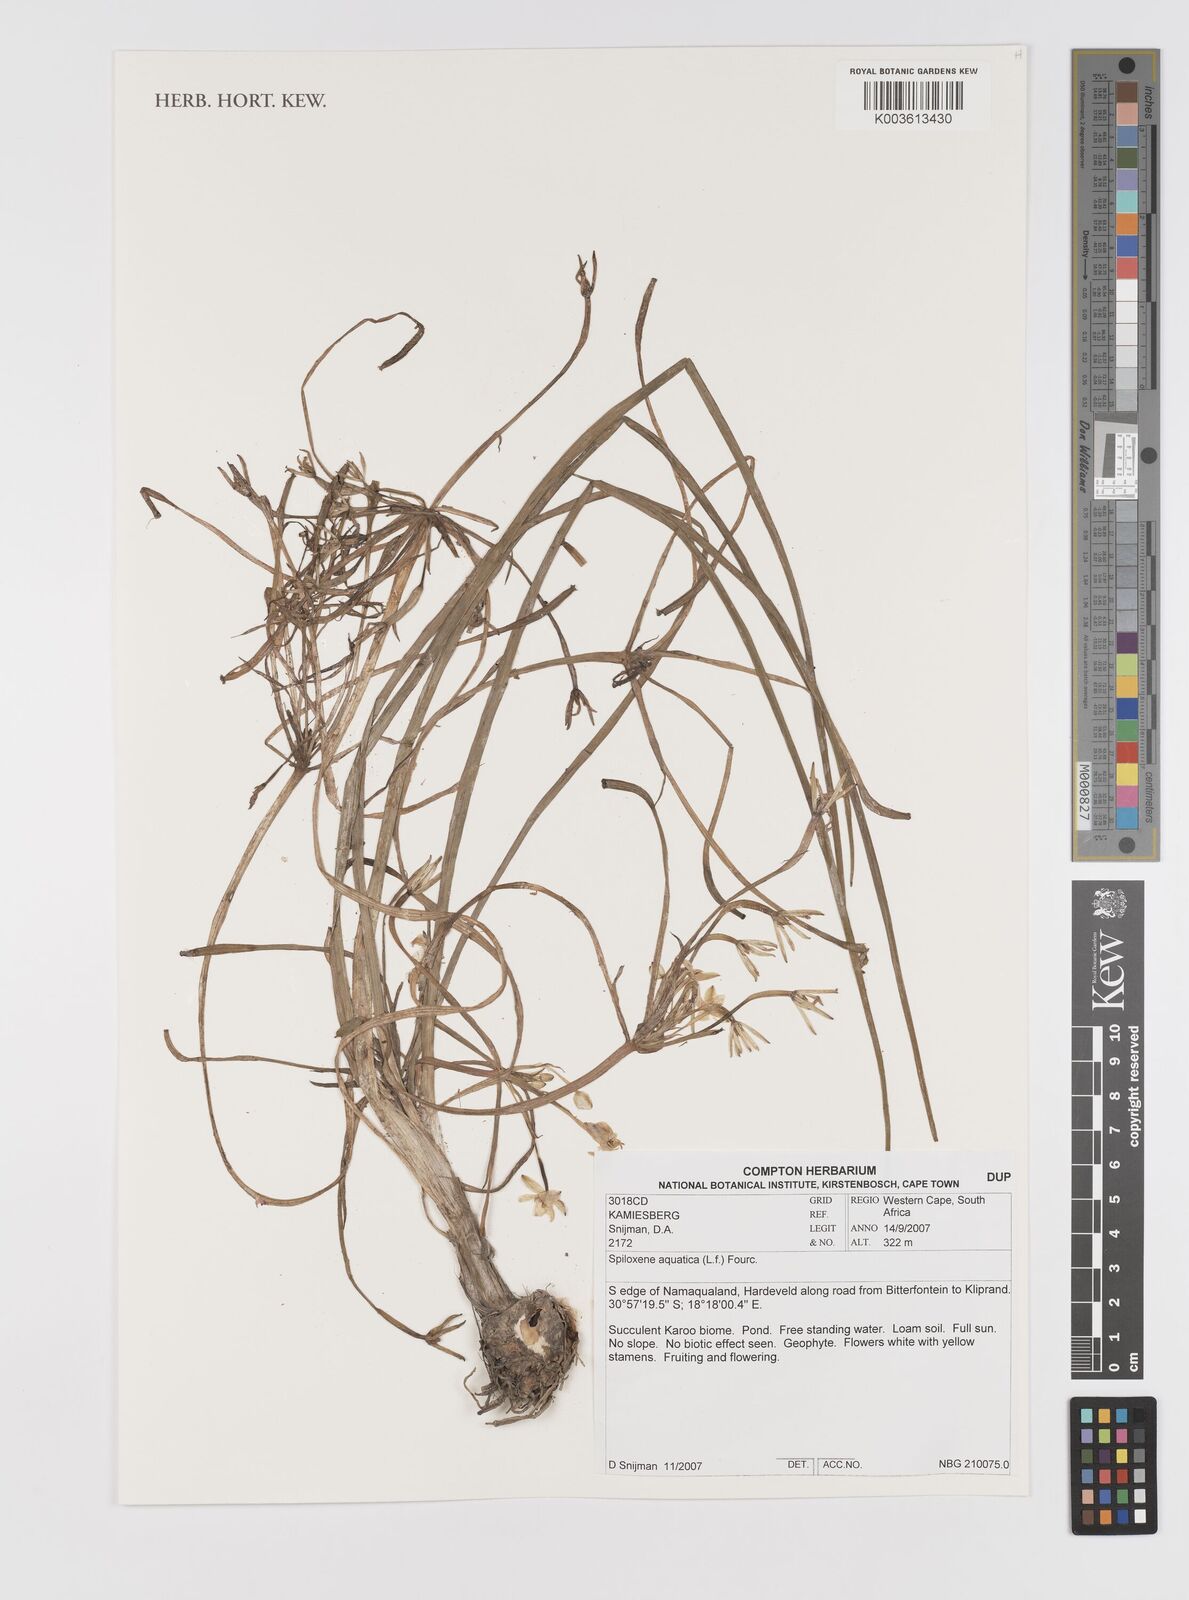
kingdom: Plantae
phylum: Tracheophyta
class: Liliopsida
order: Asparagales
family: Hypoxidaceae
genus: Pauridia
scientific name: Pauridia aquatica
